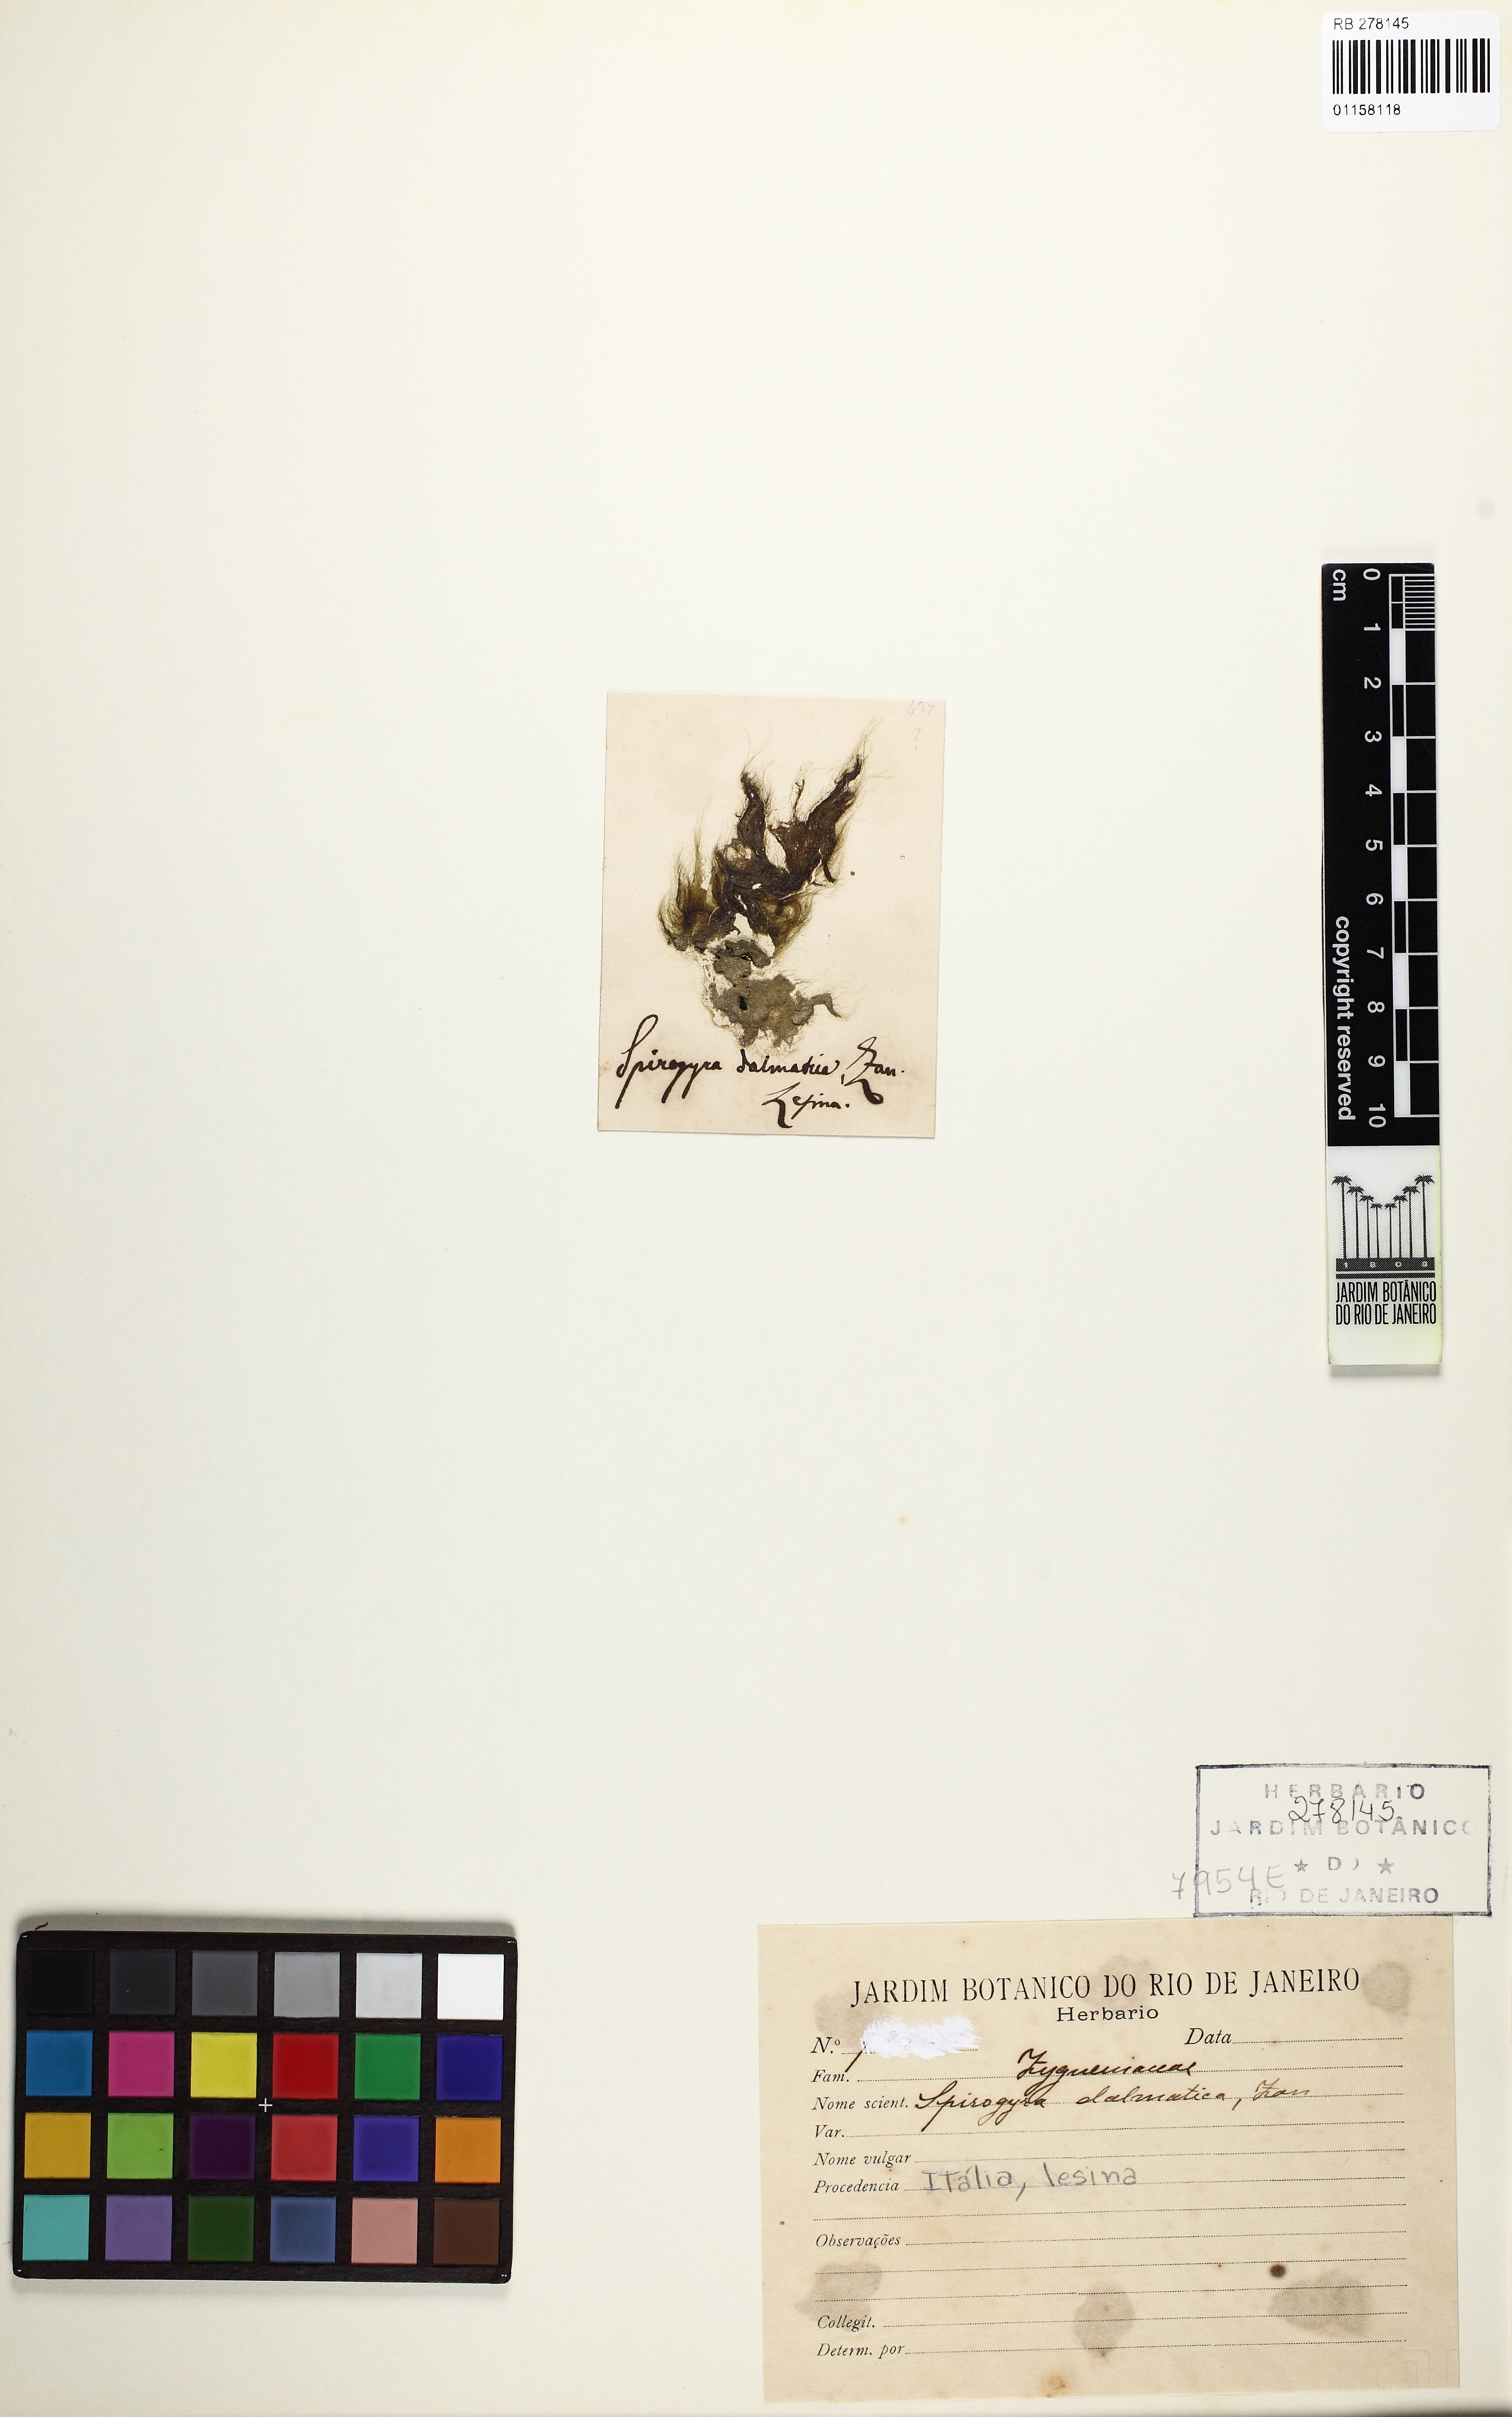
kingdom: Plantae
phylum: Charophyta
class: Zygnematophyceae
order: Zygnematales
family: Zygnemataceae
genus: Spirogyra
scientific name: Spirogyra
